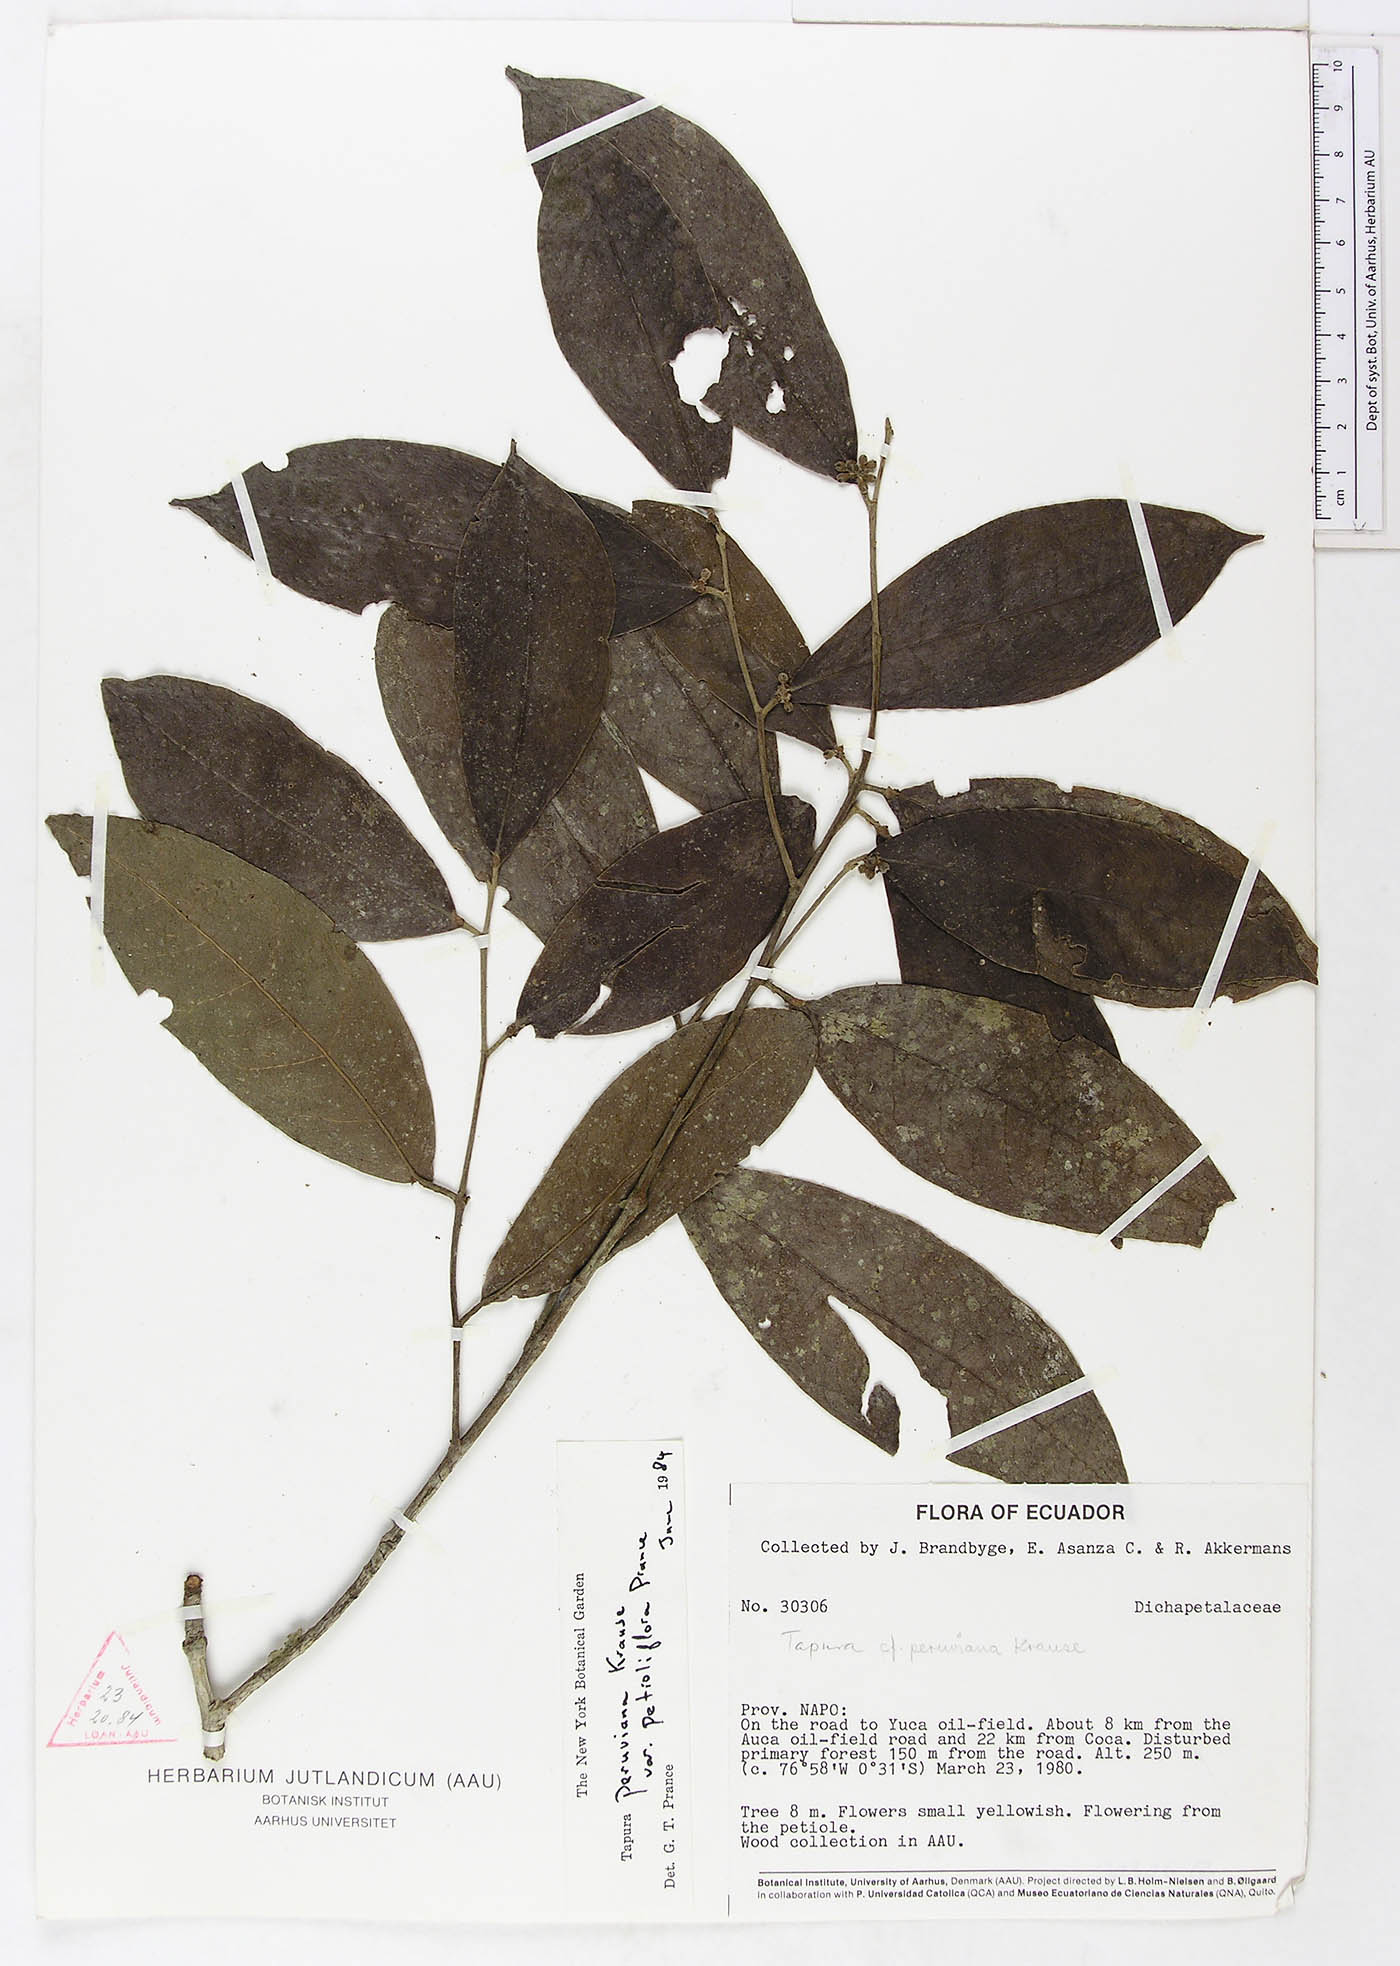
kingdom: Plantae
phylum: Tracheophyta
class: Magnoliopsida
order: Malpighiales
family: Dichapetalaceae
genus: Tapura
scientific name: Tapura peruviana
